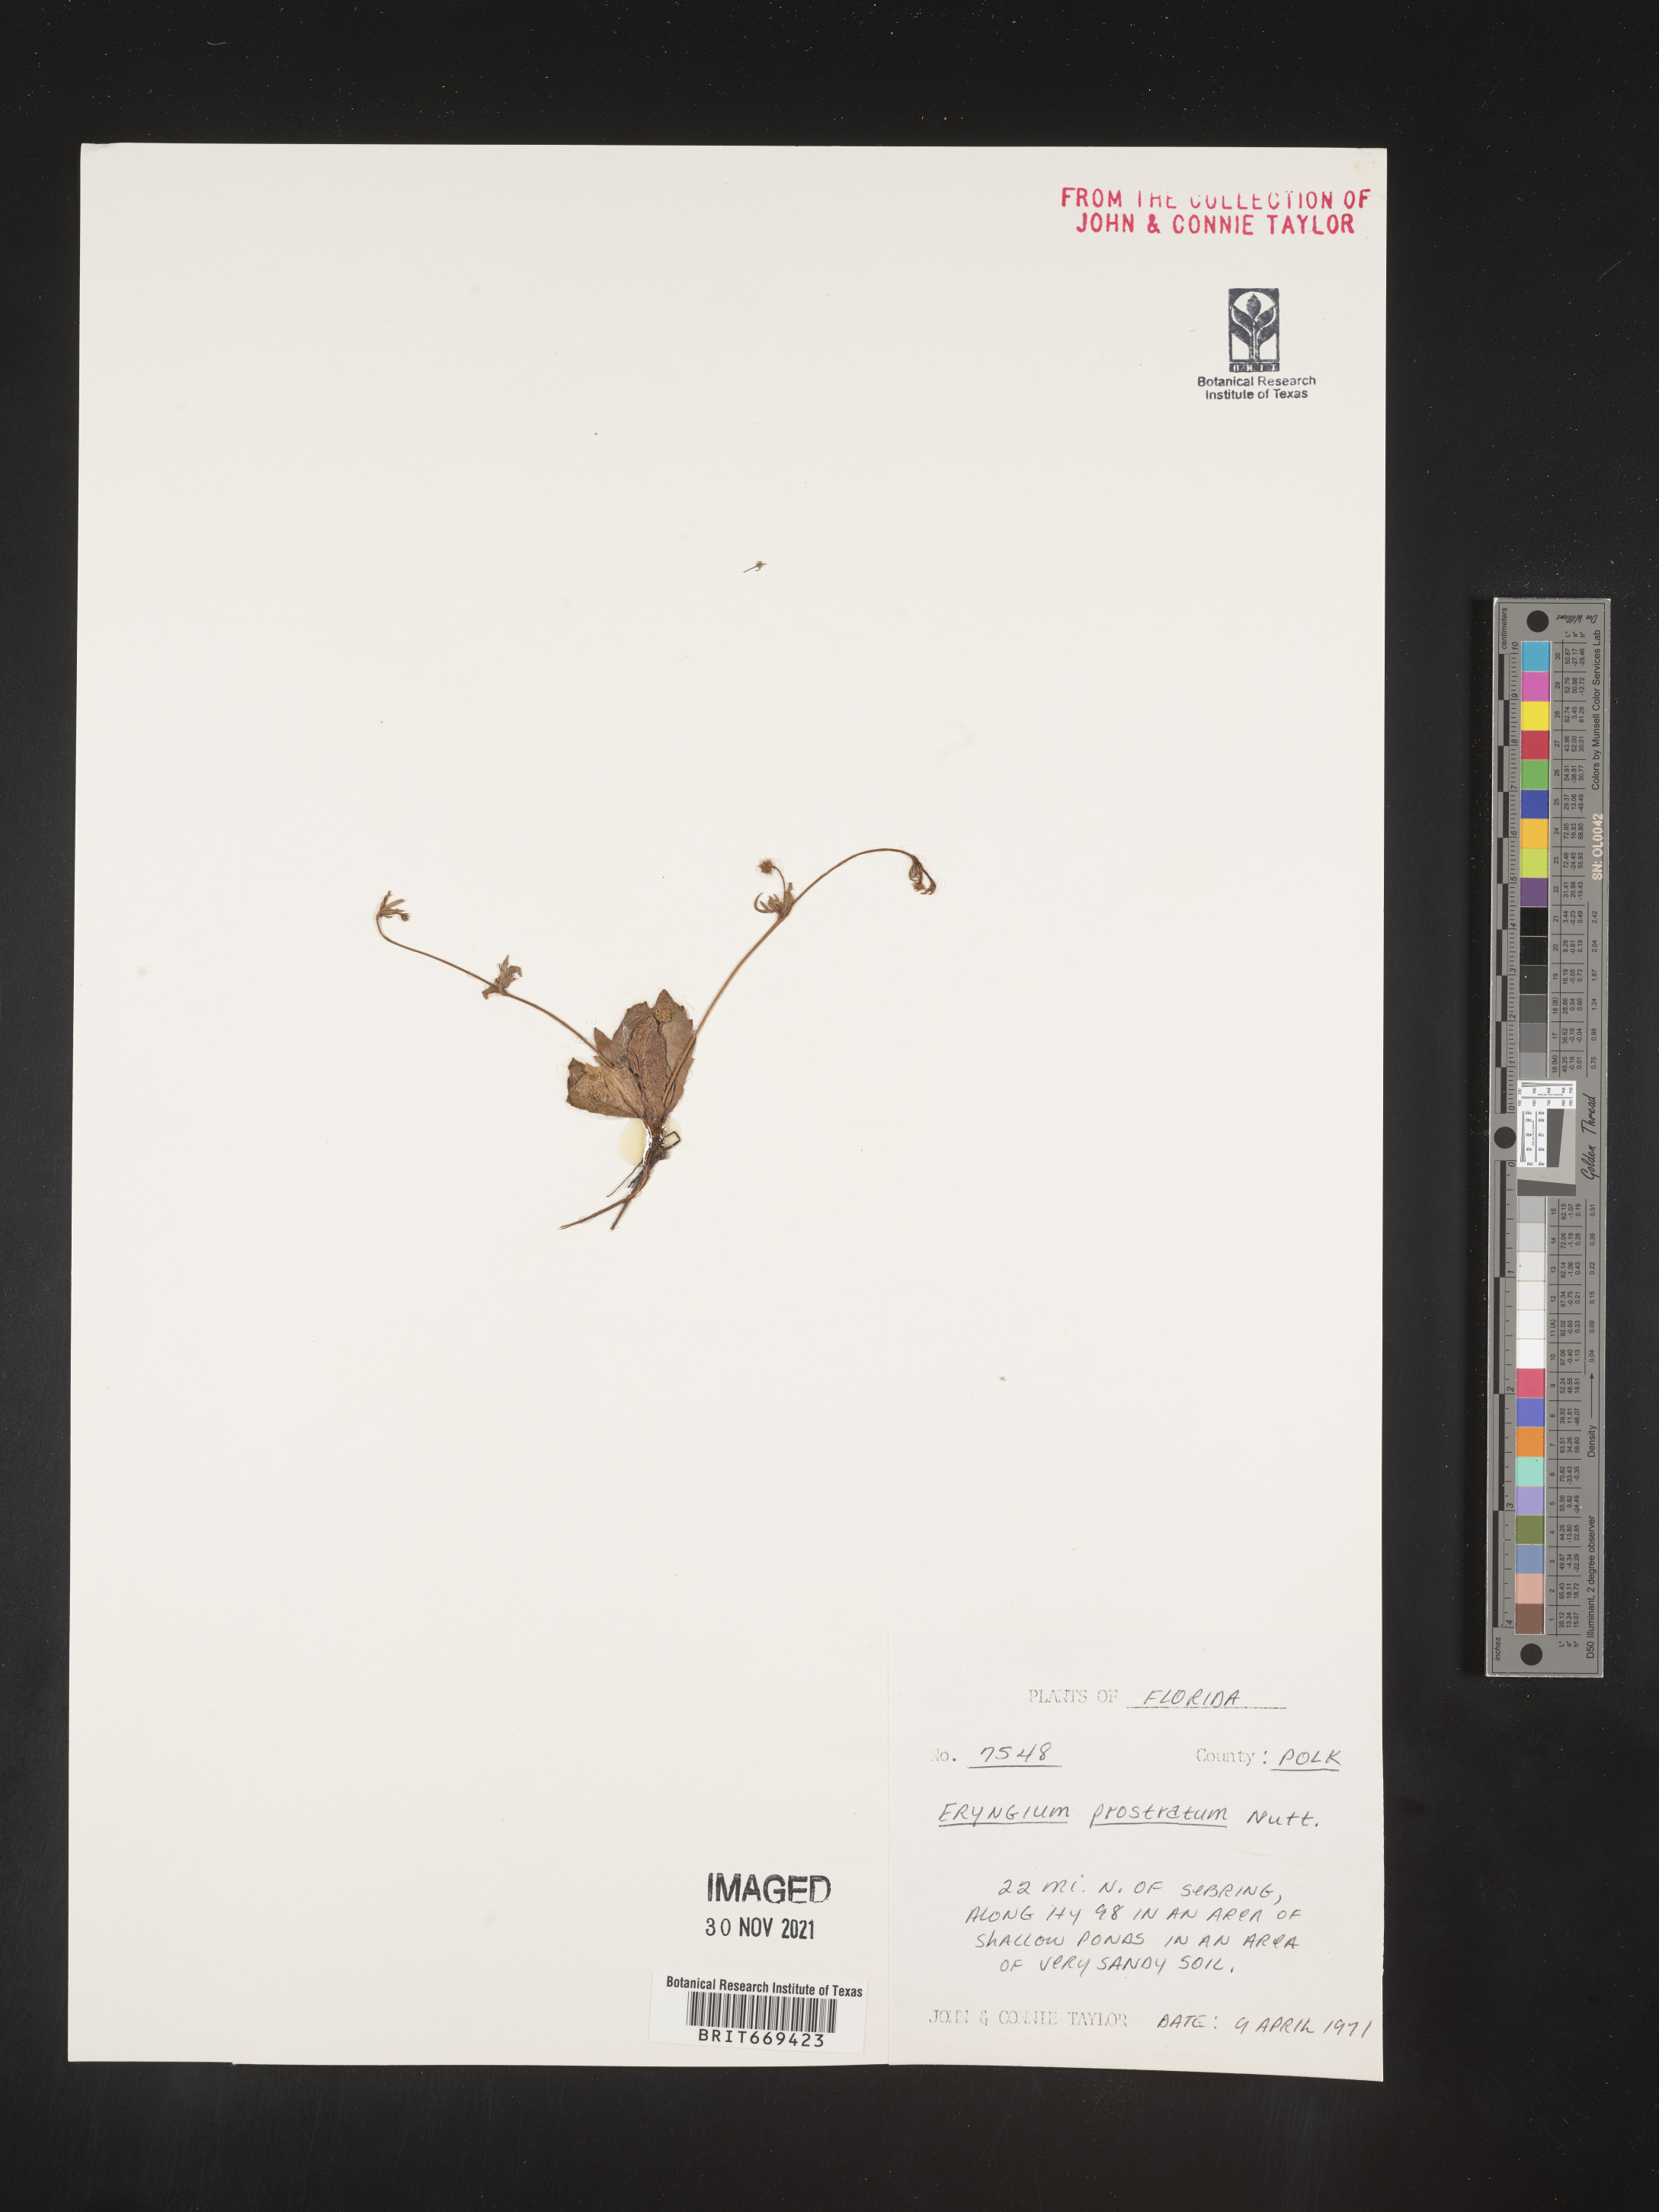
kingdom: Plantae
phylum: Tracheophyta
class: Magnoliopsida
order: Apiales
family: Apiaceae
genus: Eryngium
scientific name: Eryngium prostratum
